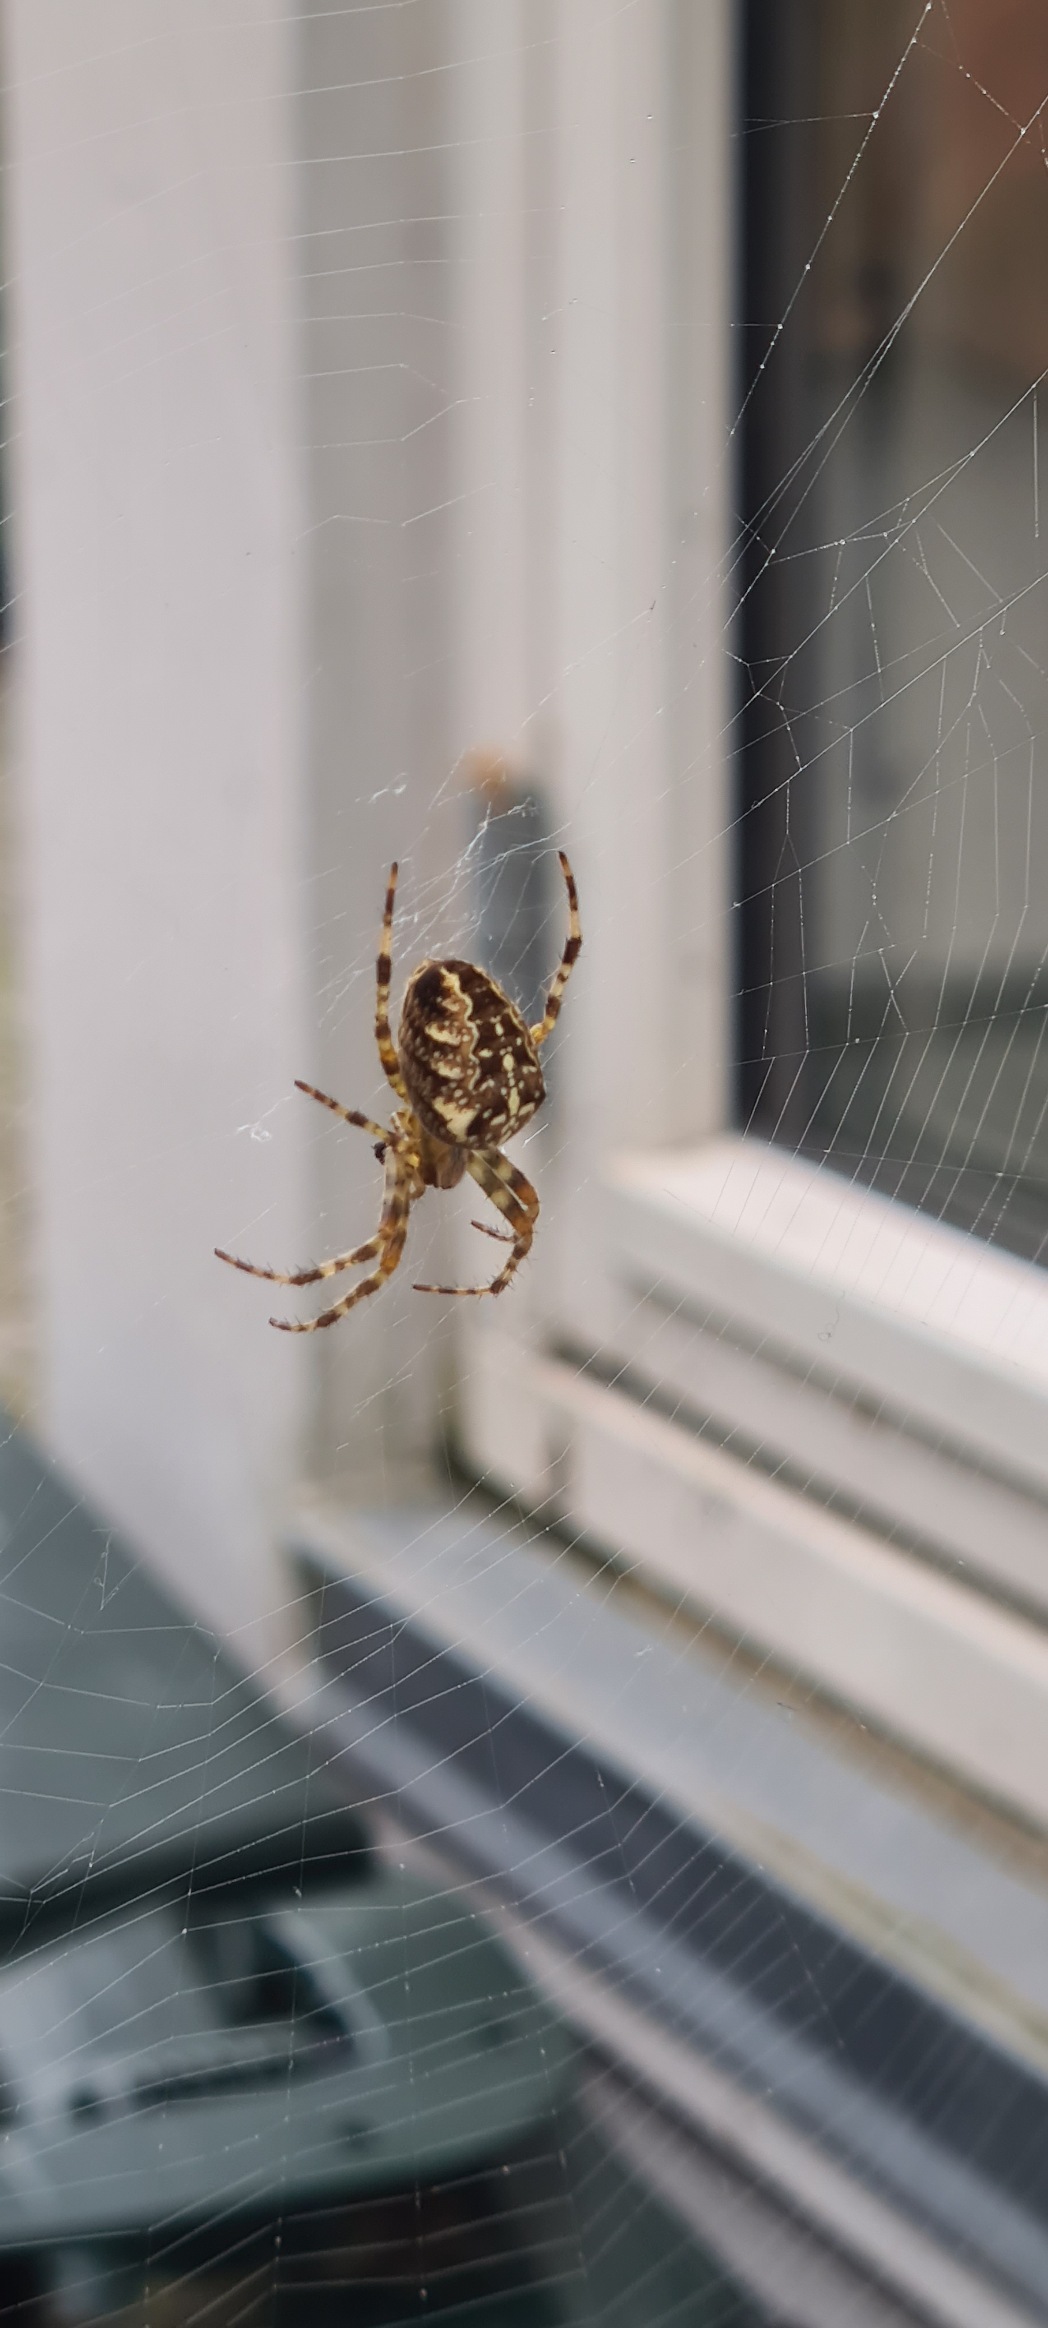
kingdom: Animalia
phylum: Arthropoda
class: Arachnida
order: Araneae
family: Araneidae
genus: Araneus
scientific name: Araneus diadematus
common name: Korsedderkop
